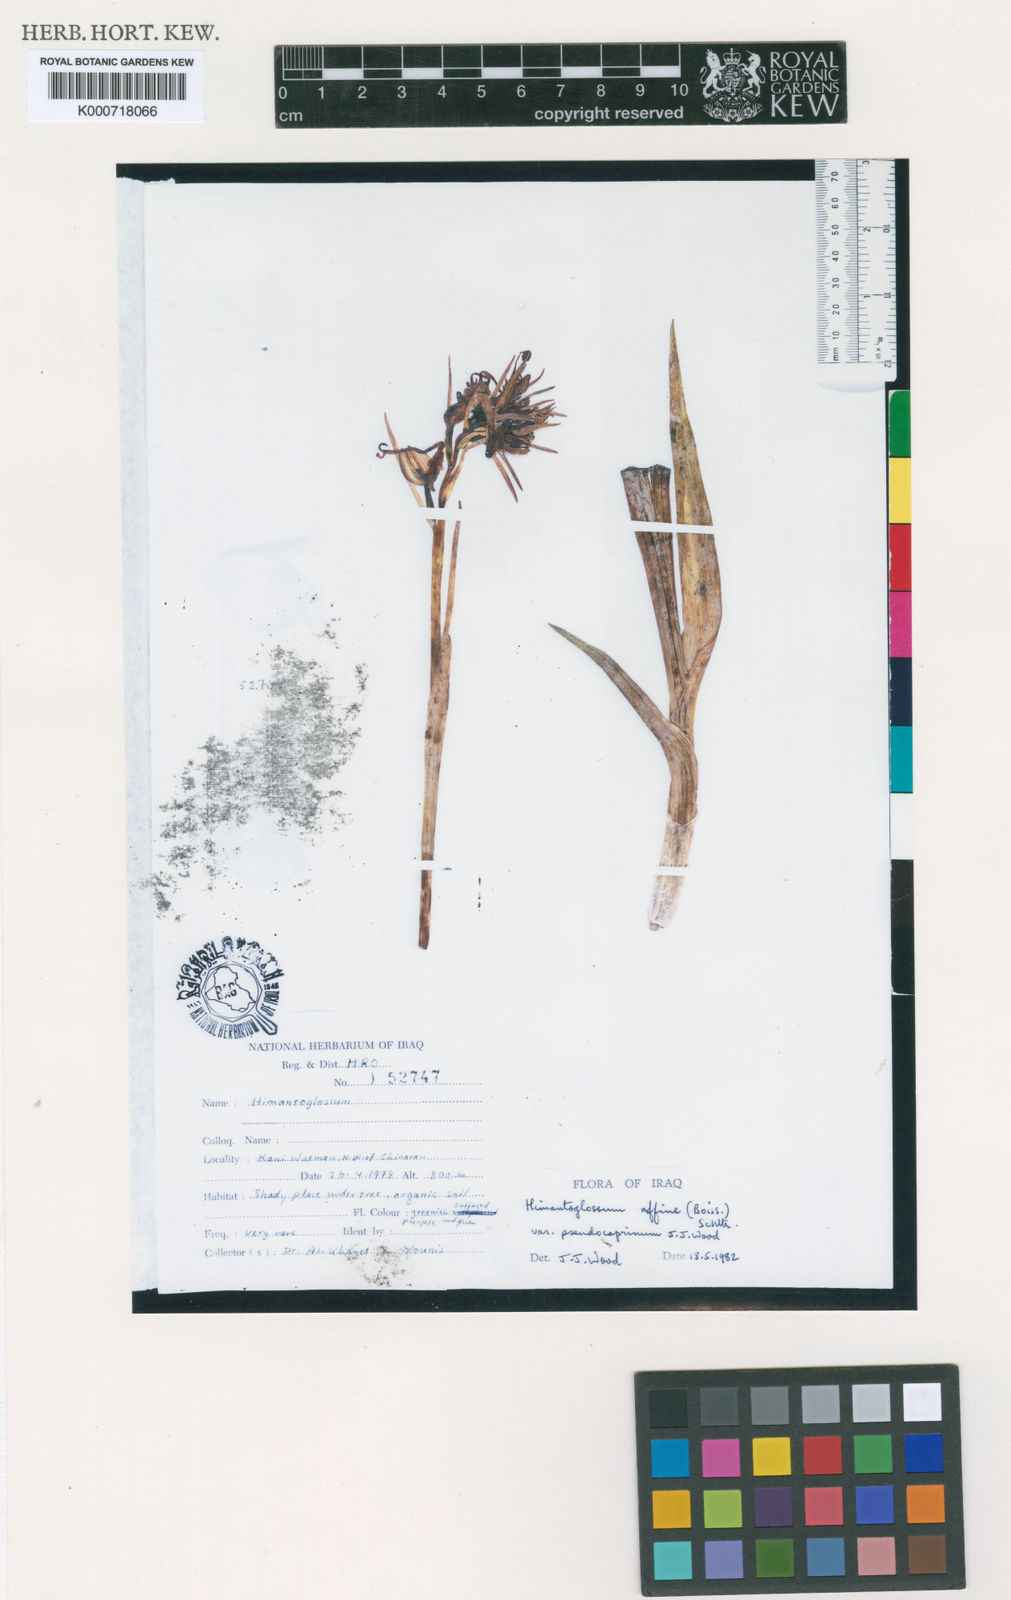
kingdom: Plantae
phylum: Tracheophyta
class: Liliopsida
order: Asparagales
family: Orchidaceae
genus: Himantoglossum
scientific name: Himantoglossum caprinum
